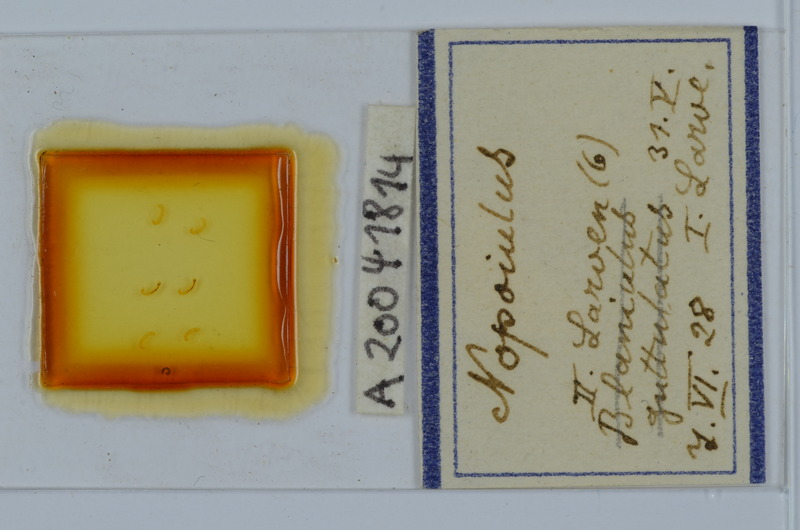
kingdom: Animalia
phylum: Arthropoda
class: Diplopoda
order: Julida
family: Blaniulidae
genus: Nopoiulus
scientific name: Nopoiulus
